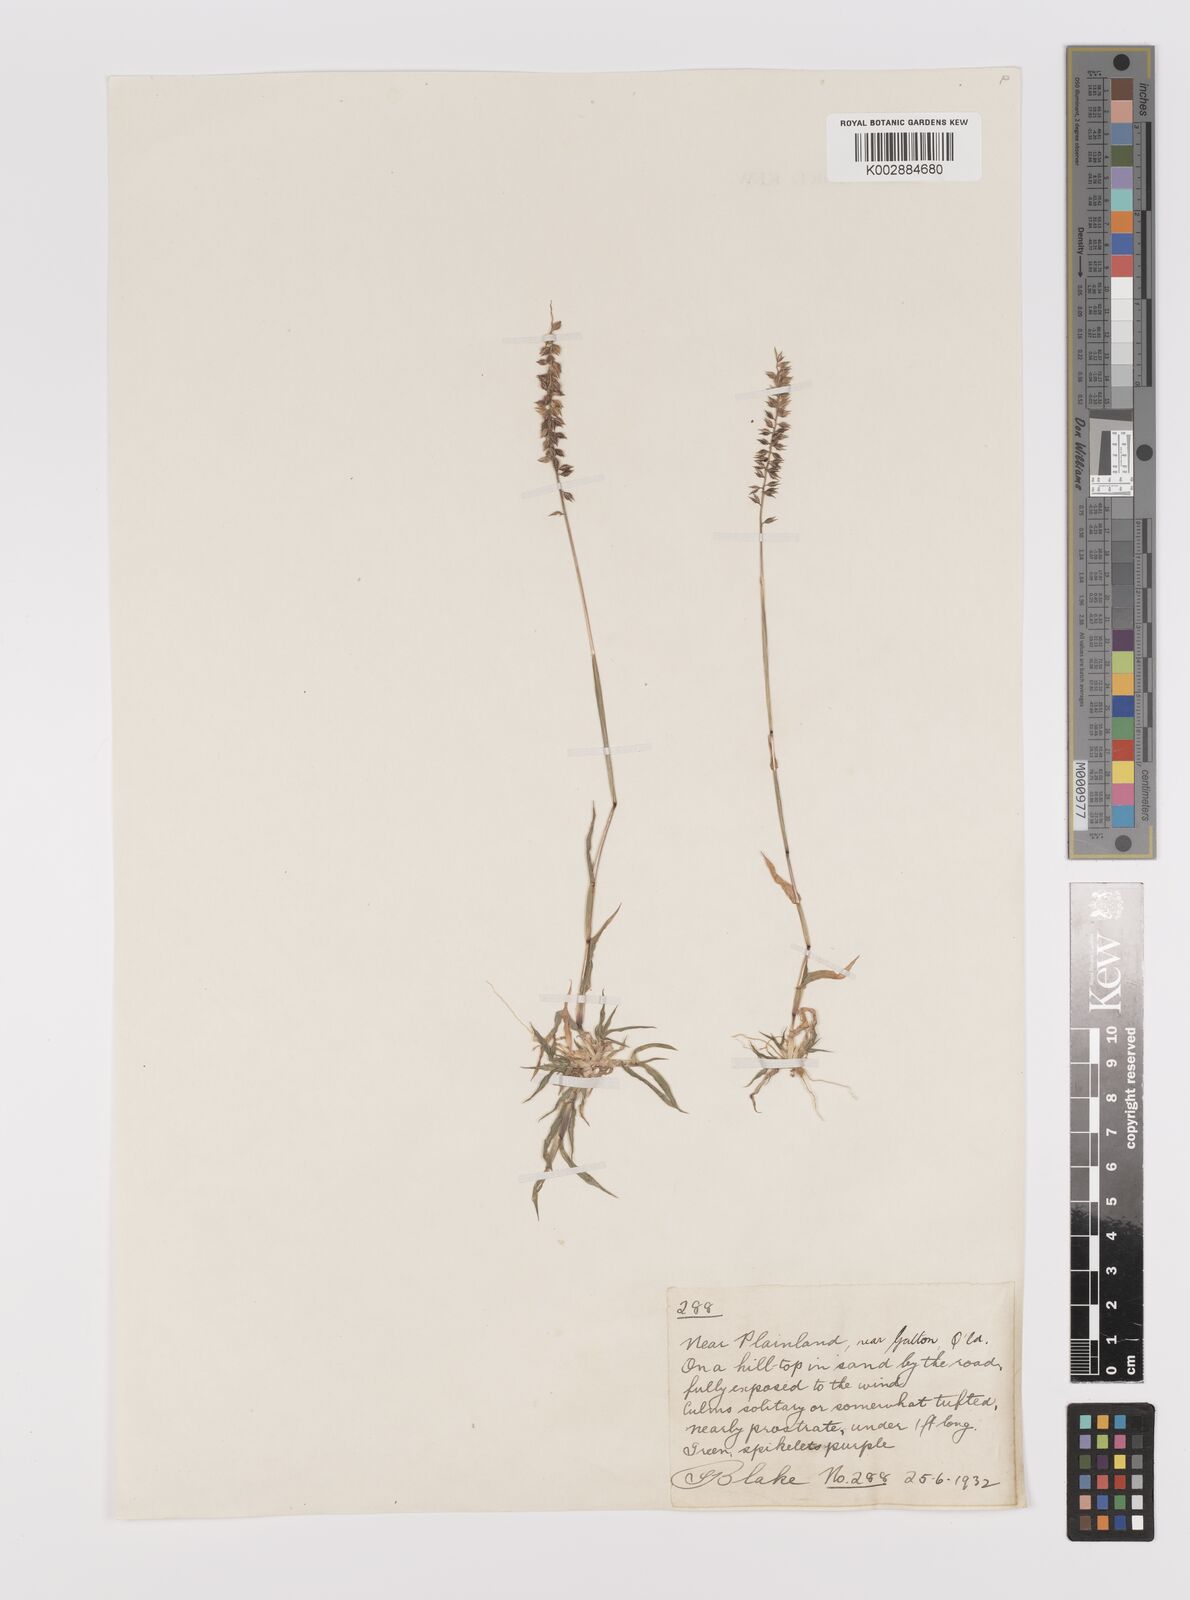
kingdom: Plantae
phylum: Tracheophyta
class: Liliopsida
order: Poales
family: Poaceae
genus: Tragus
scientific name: Tragus australianus
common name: Australian bur-grass
